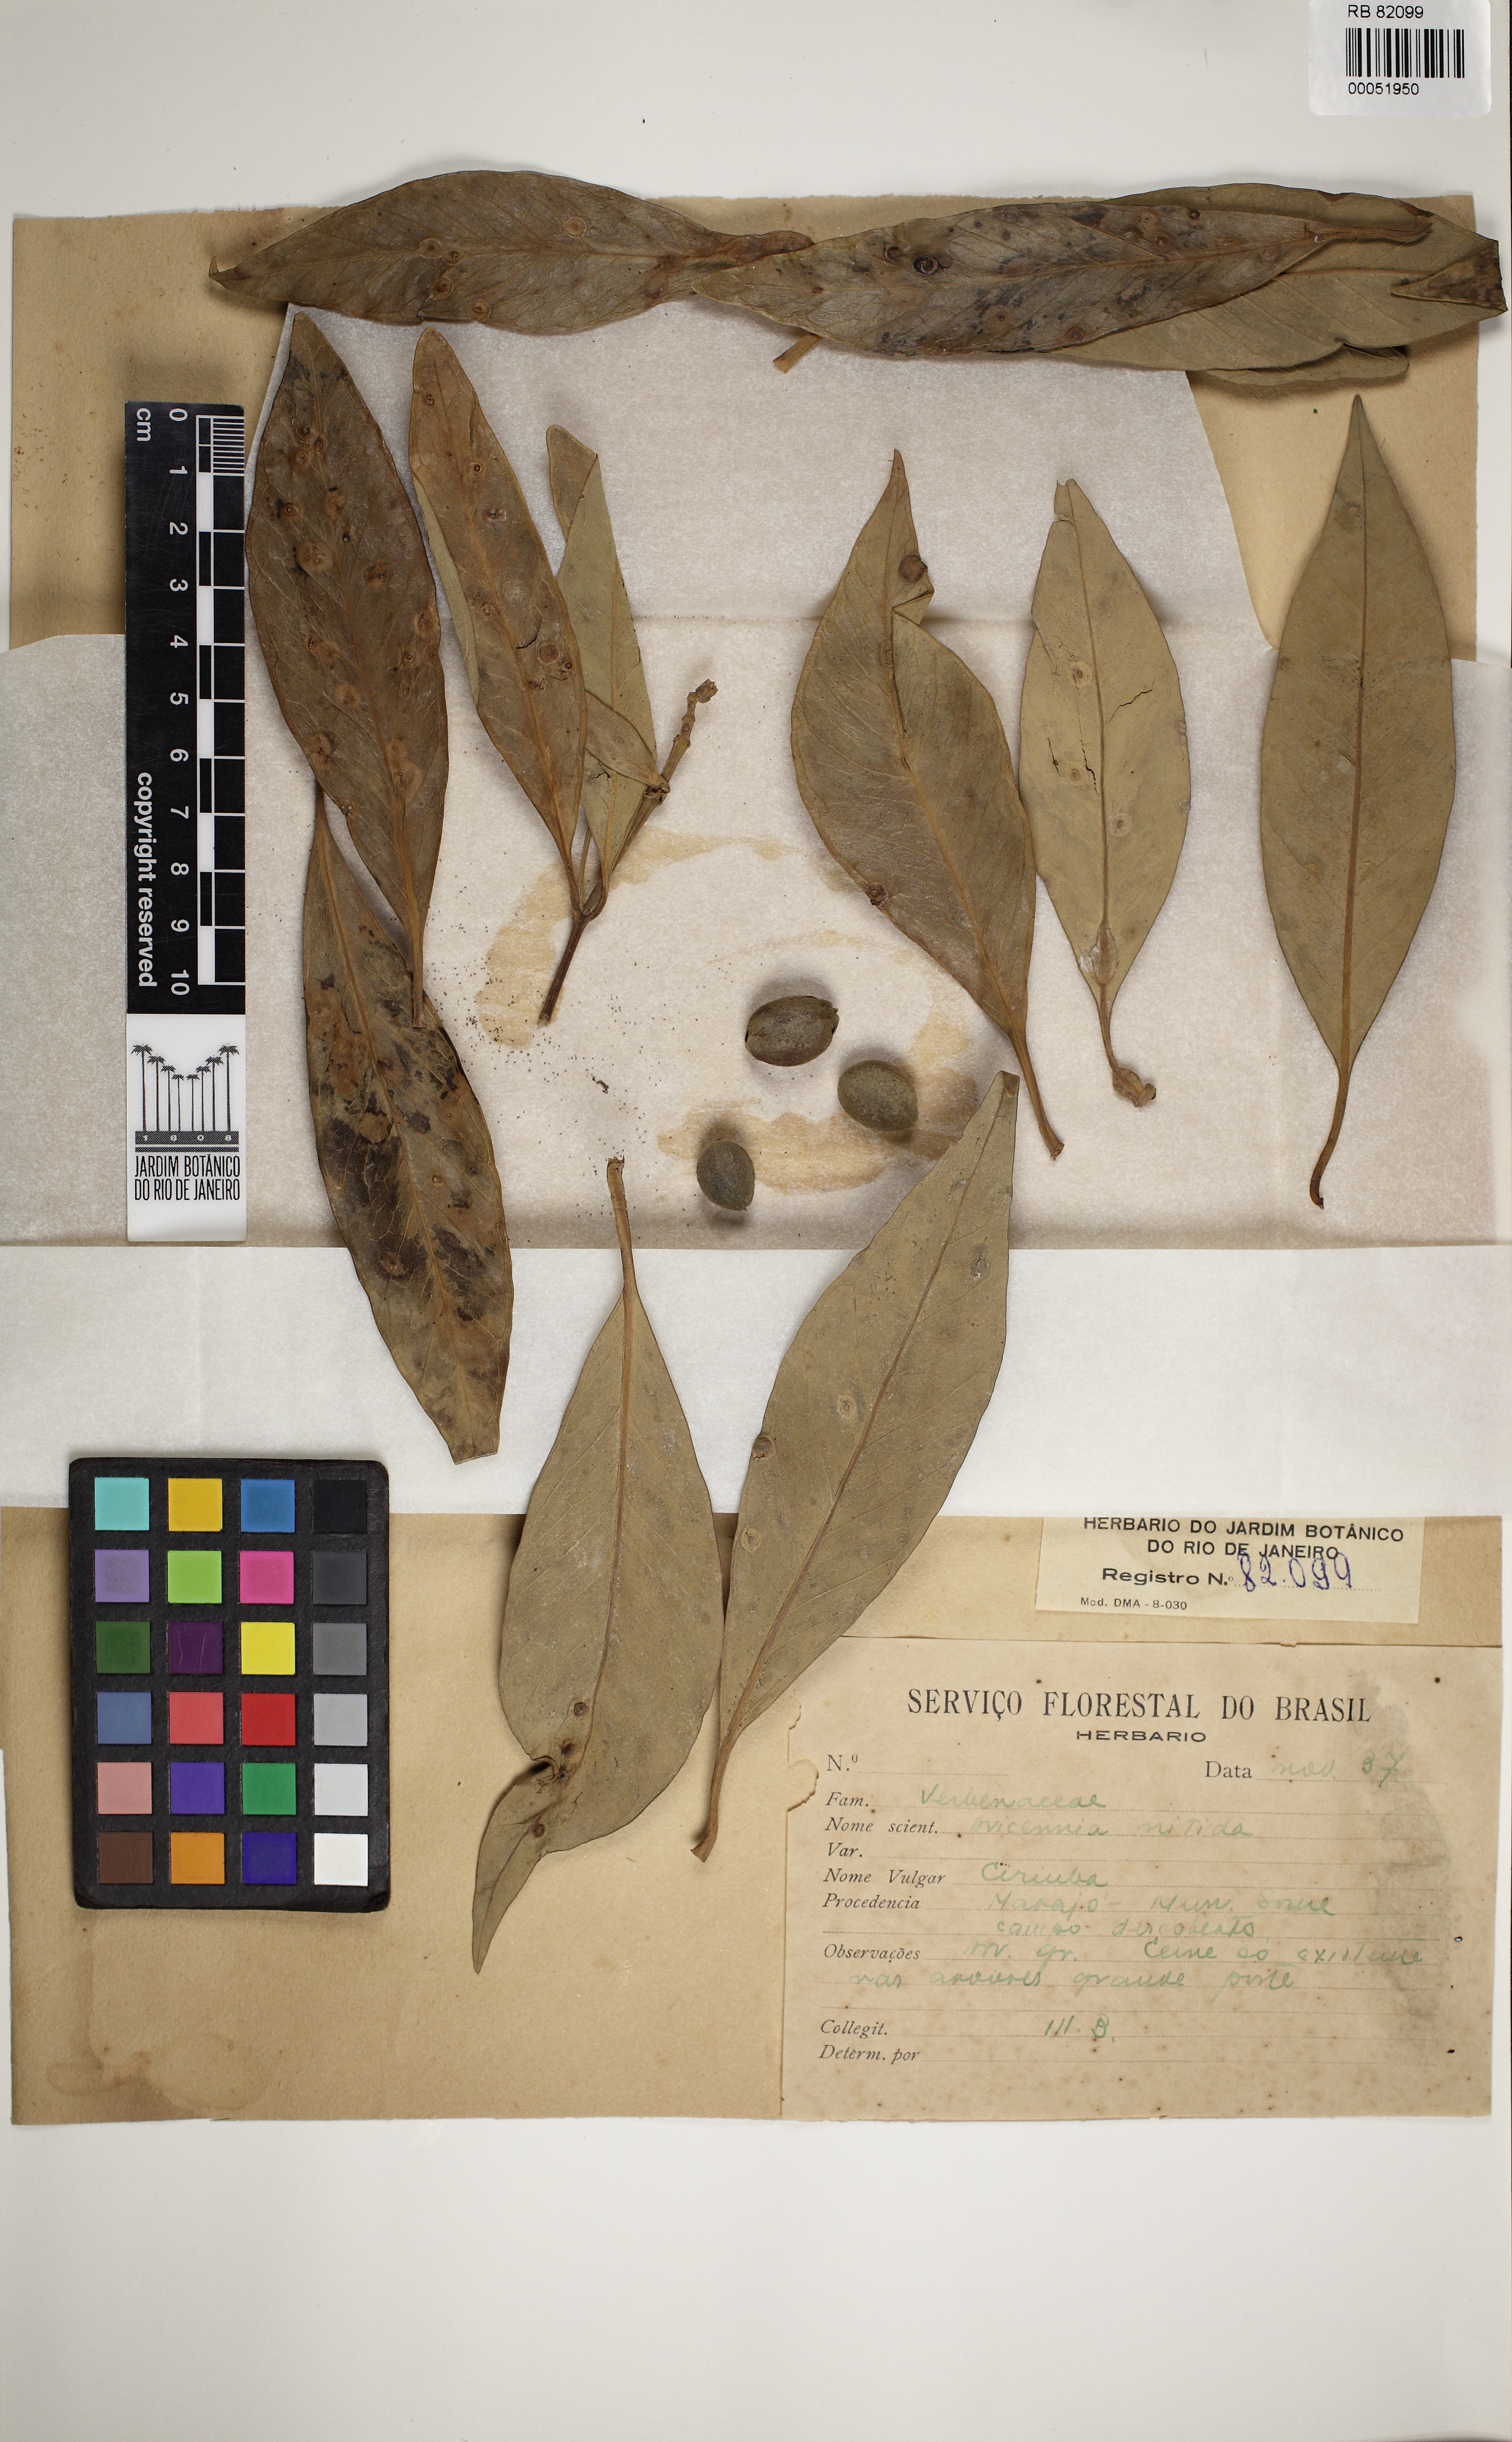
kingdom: Plantae
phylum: Tracheophyta
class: Magnoliopsida
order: Lamiales
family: Acanthaceae
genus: Avicennia
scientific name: Avicennia germinans
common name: Black mangrove
